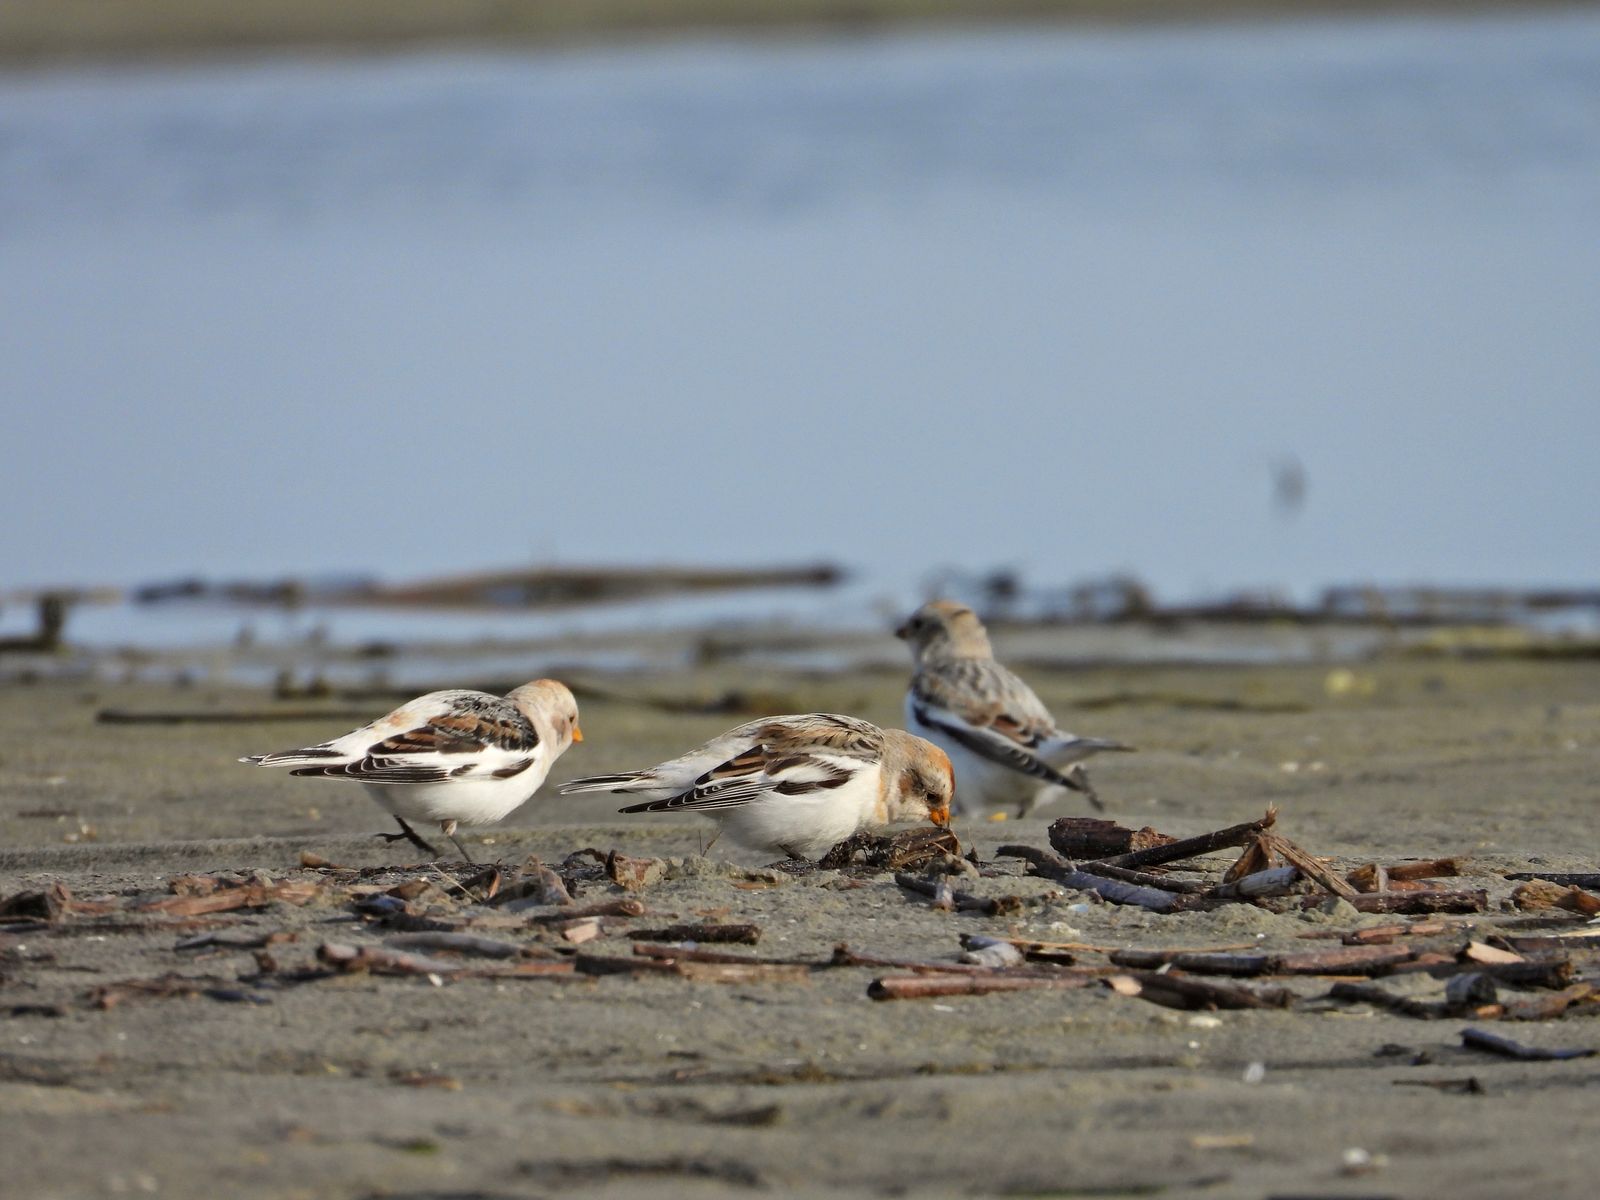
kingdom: Animalia
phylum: Chordata
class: Aves
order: Passeriformes
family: Calcariidae
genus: Plectrophenax
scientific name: Plectrophenax nivalis
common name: Snow bunting
